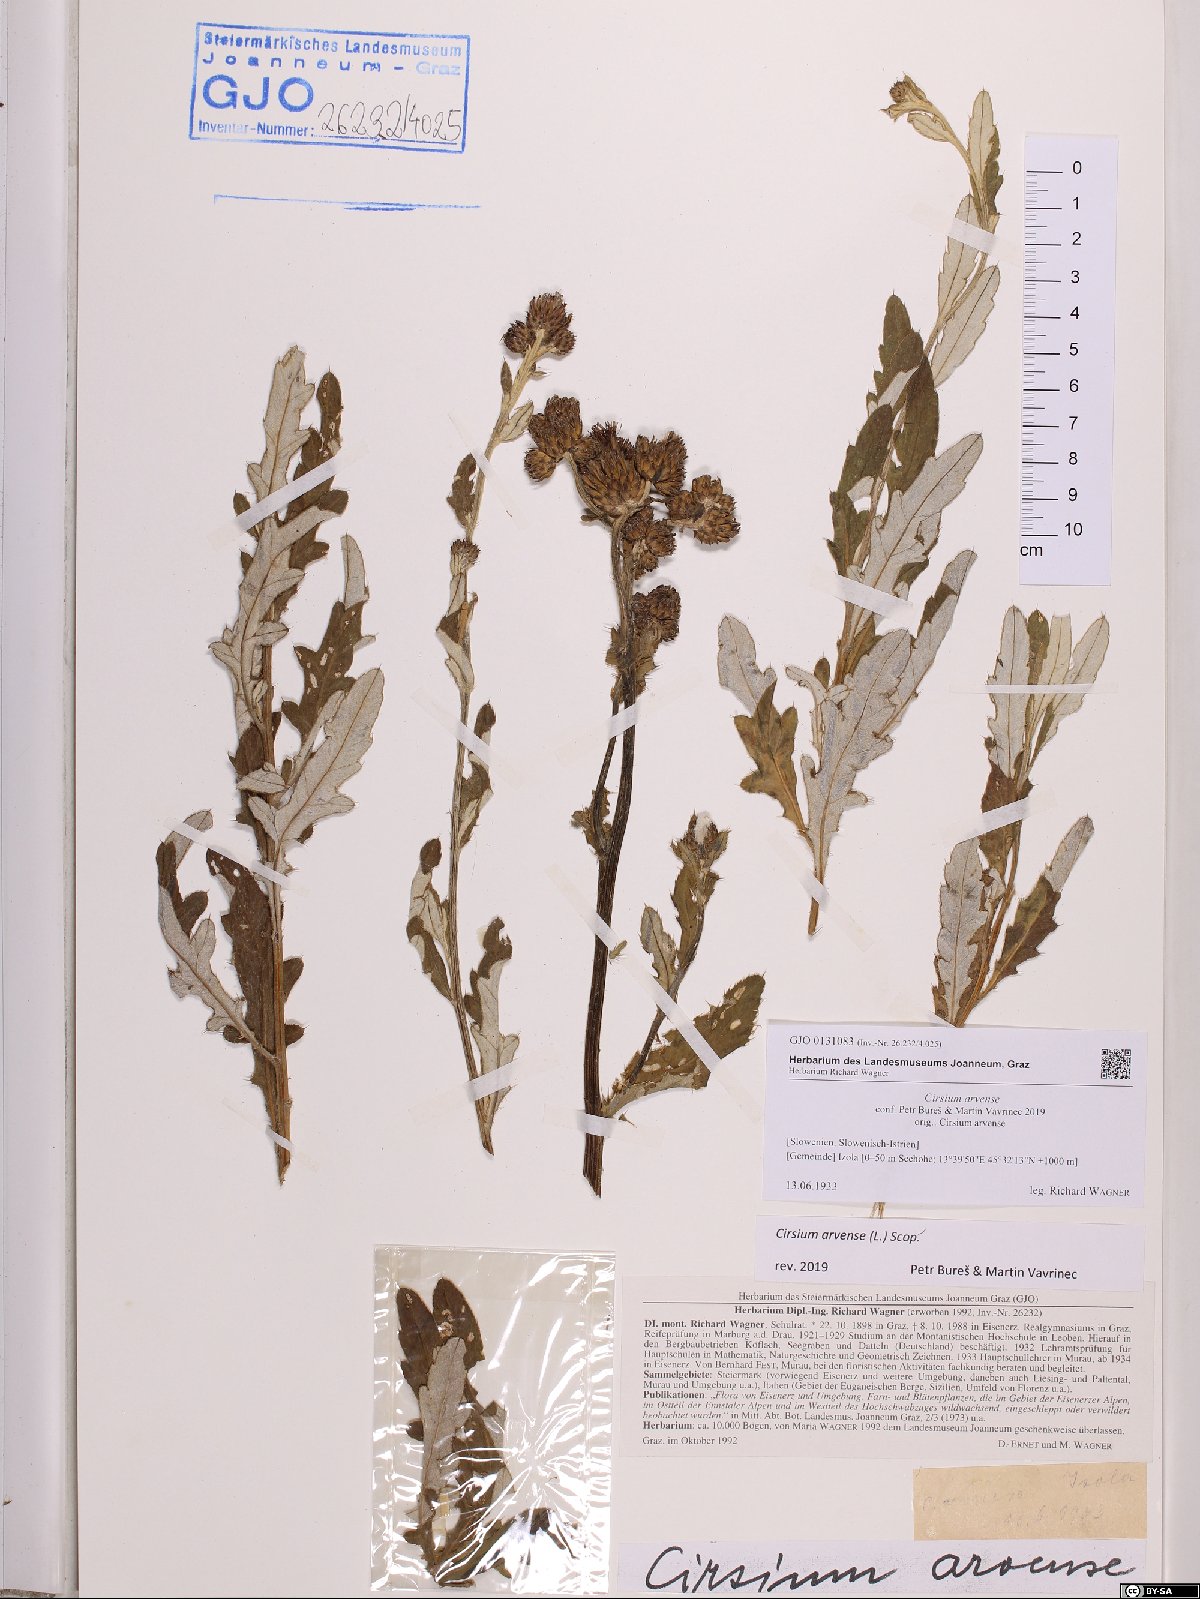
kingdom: Plantae
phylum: Tracheophyta
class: Magnoliopsida
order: Asterales
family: Asteraceae
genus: Cirsium
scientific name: Cirsium arvense
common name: Creeping thistle
